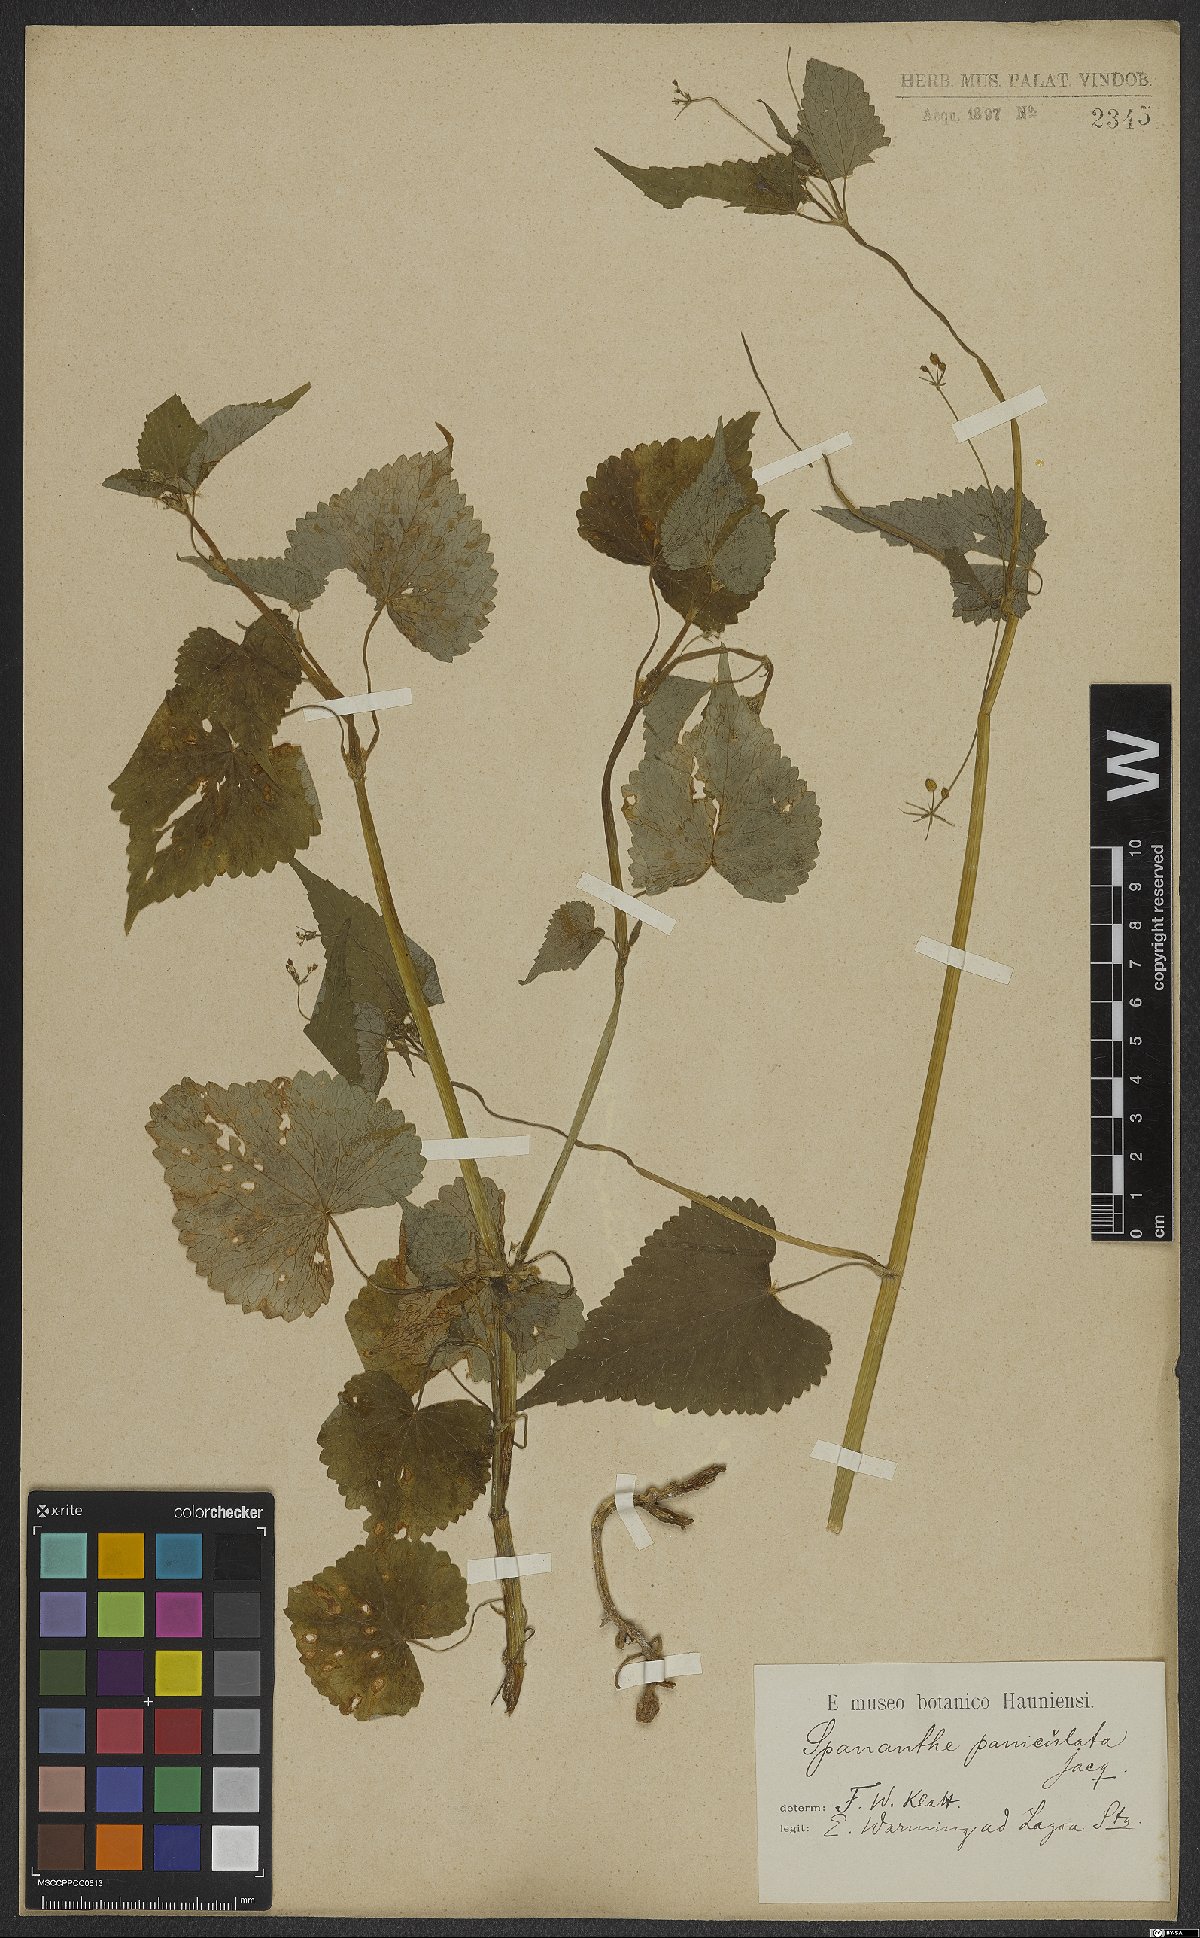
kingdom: Plantae
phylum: Tracheophyta
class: Magnoliopsida
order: Apiales
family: Apiaceae
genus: Spananthe
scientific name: Spananthe paniculata
